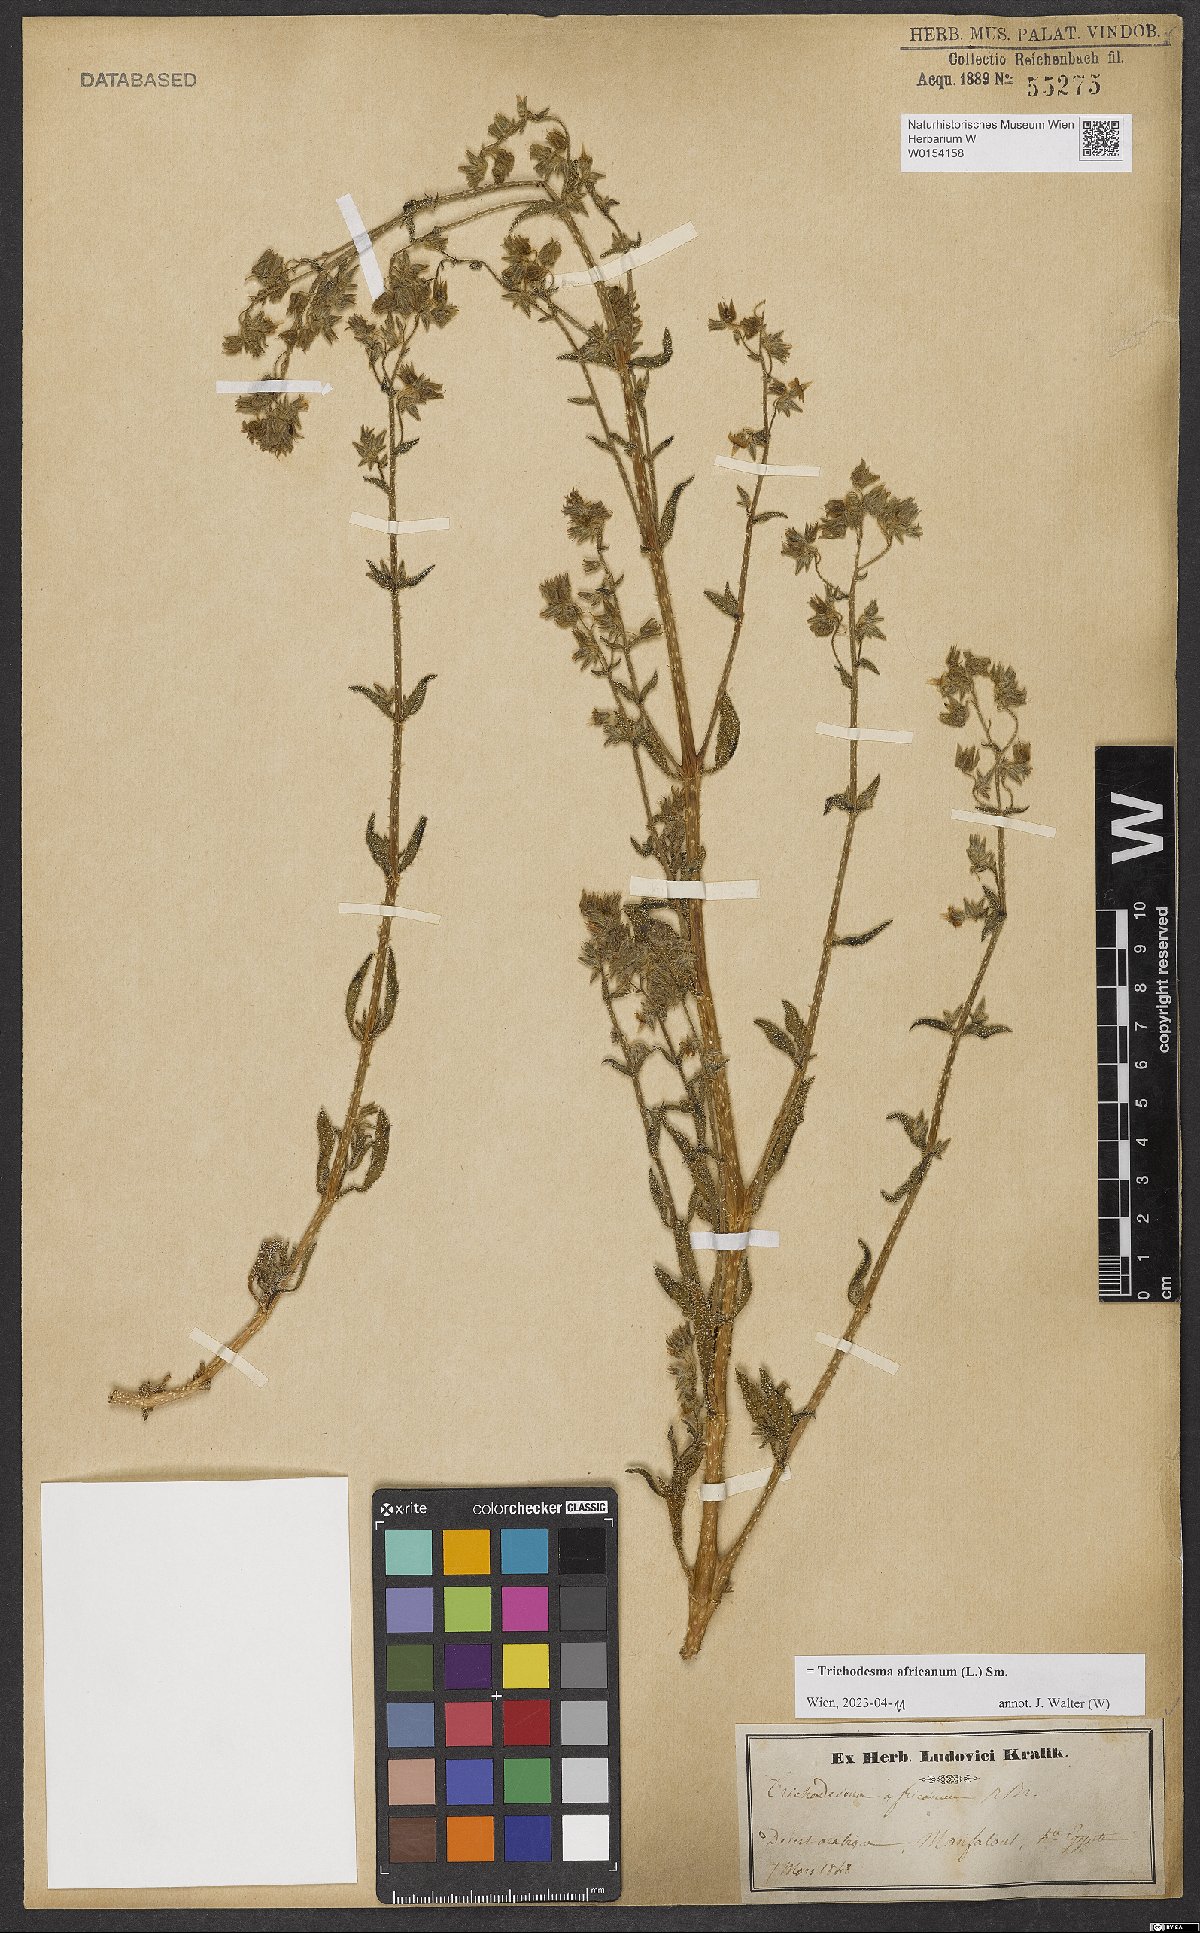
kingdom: Plantae
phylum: Tracheophyta
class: Magnoliopsida
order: Boraginales
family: Boraginaceae
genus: Trichodesma
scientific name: Trichodesma africanum
